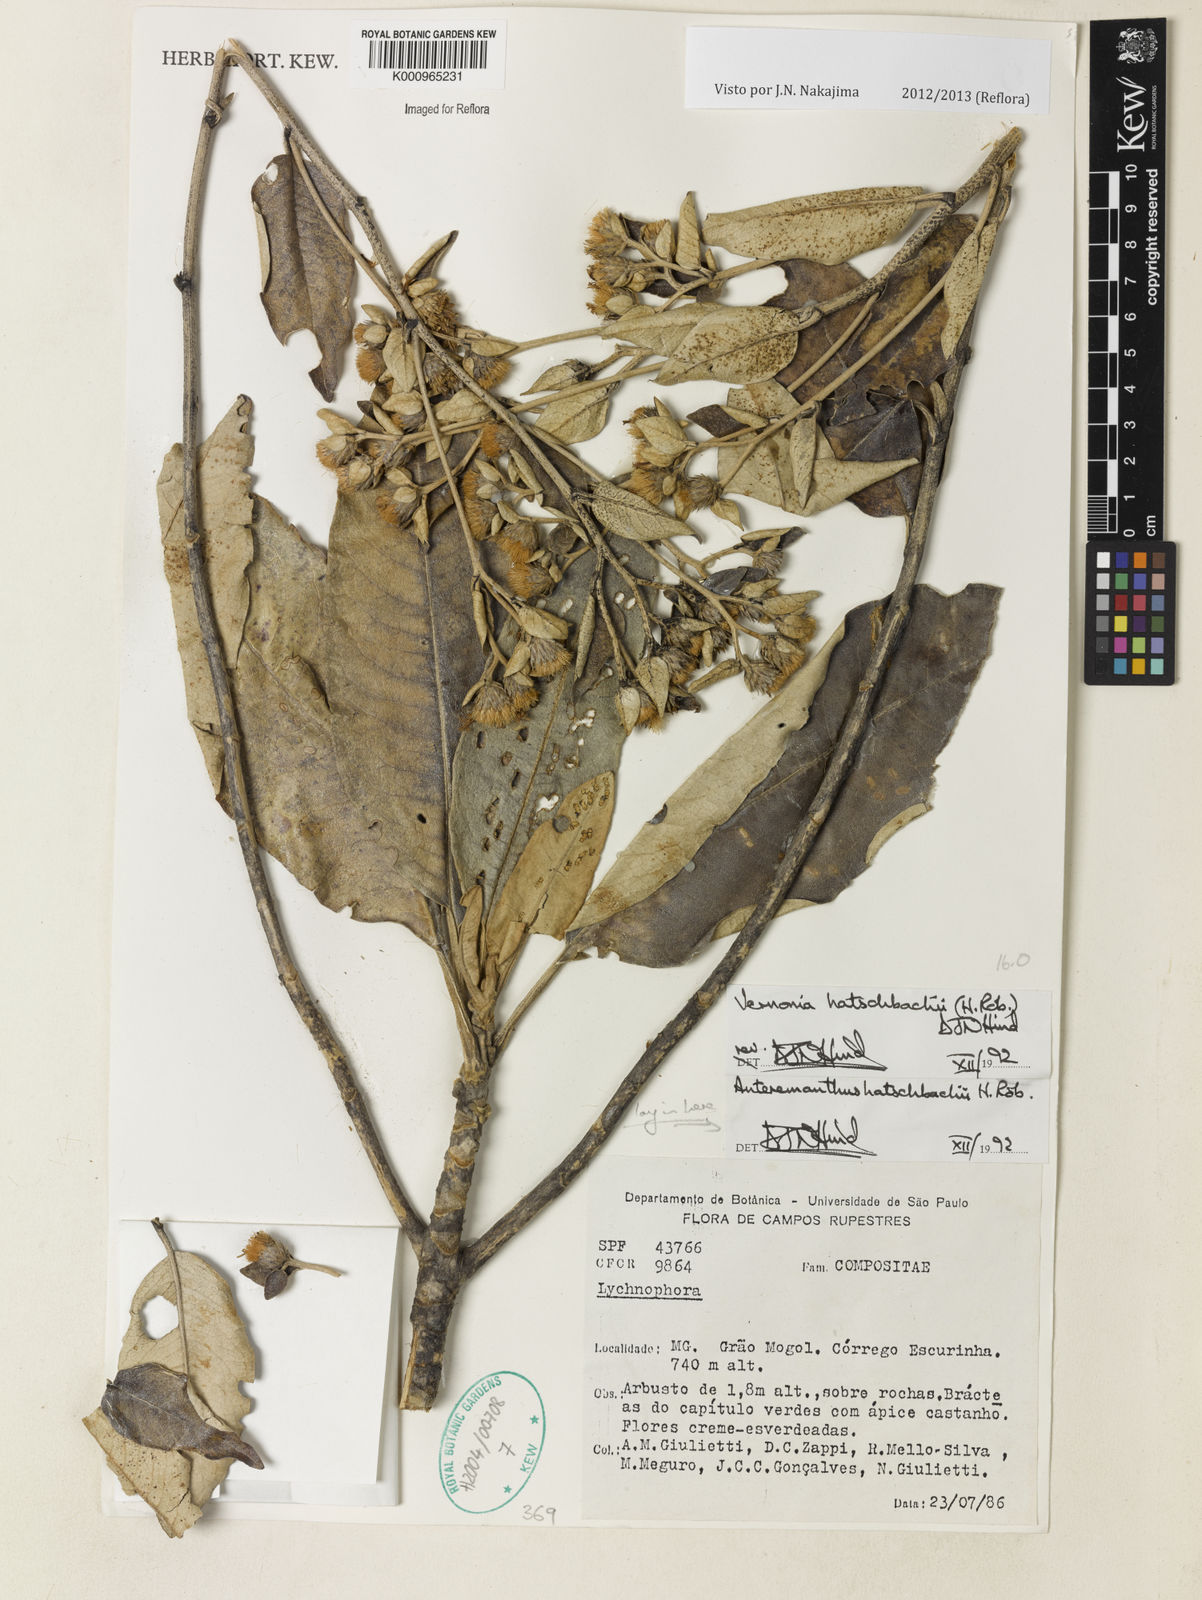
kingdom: Plantae
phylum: Tracheophyta
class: Magnoliopsida
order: Asterales
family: Asteraceae
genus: Anteremanthus
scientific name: Anteremanthus hatschbachii
